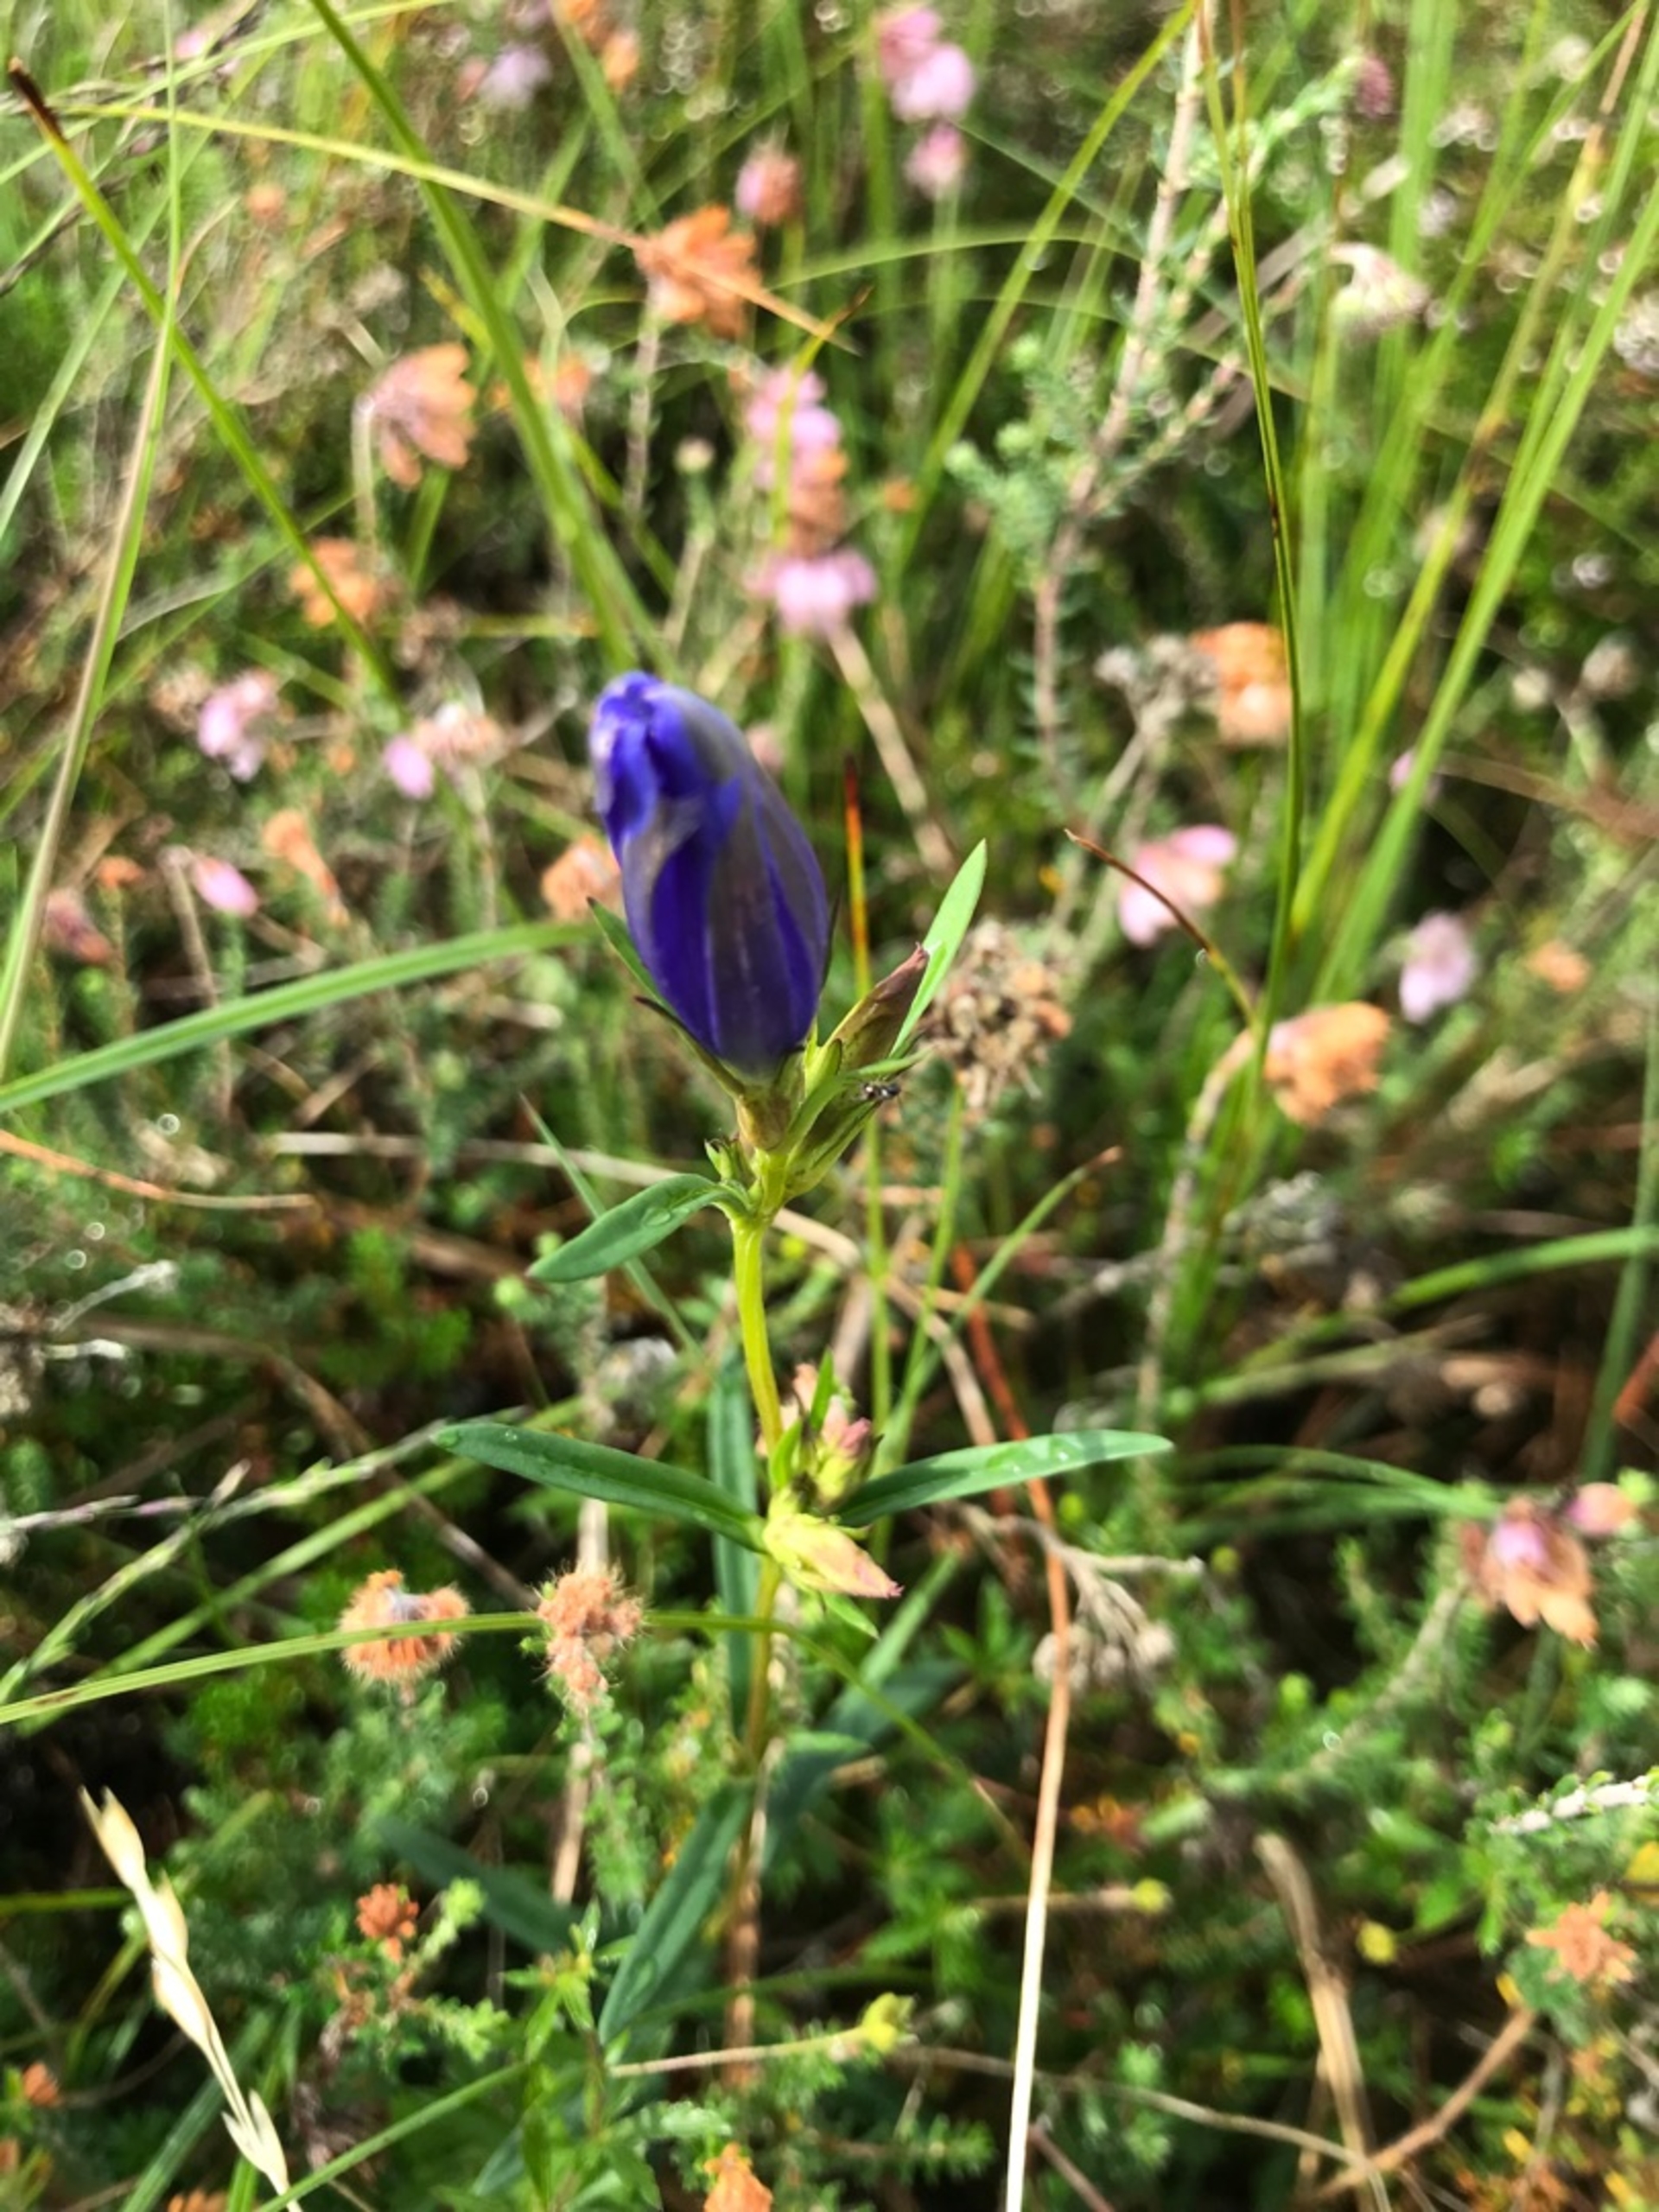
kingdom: Plantae
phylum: Tracheophyta
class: Magnoliopsida
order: Gentianales
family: Gentianaceae
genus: Gentiana
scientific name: Gentiana pneumonanthe
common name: Klokke-ensian
